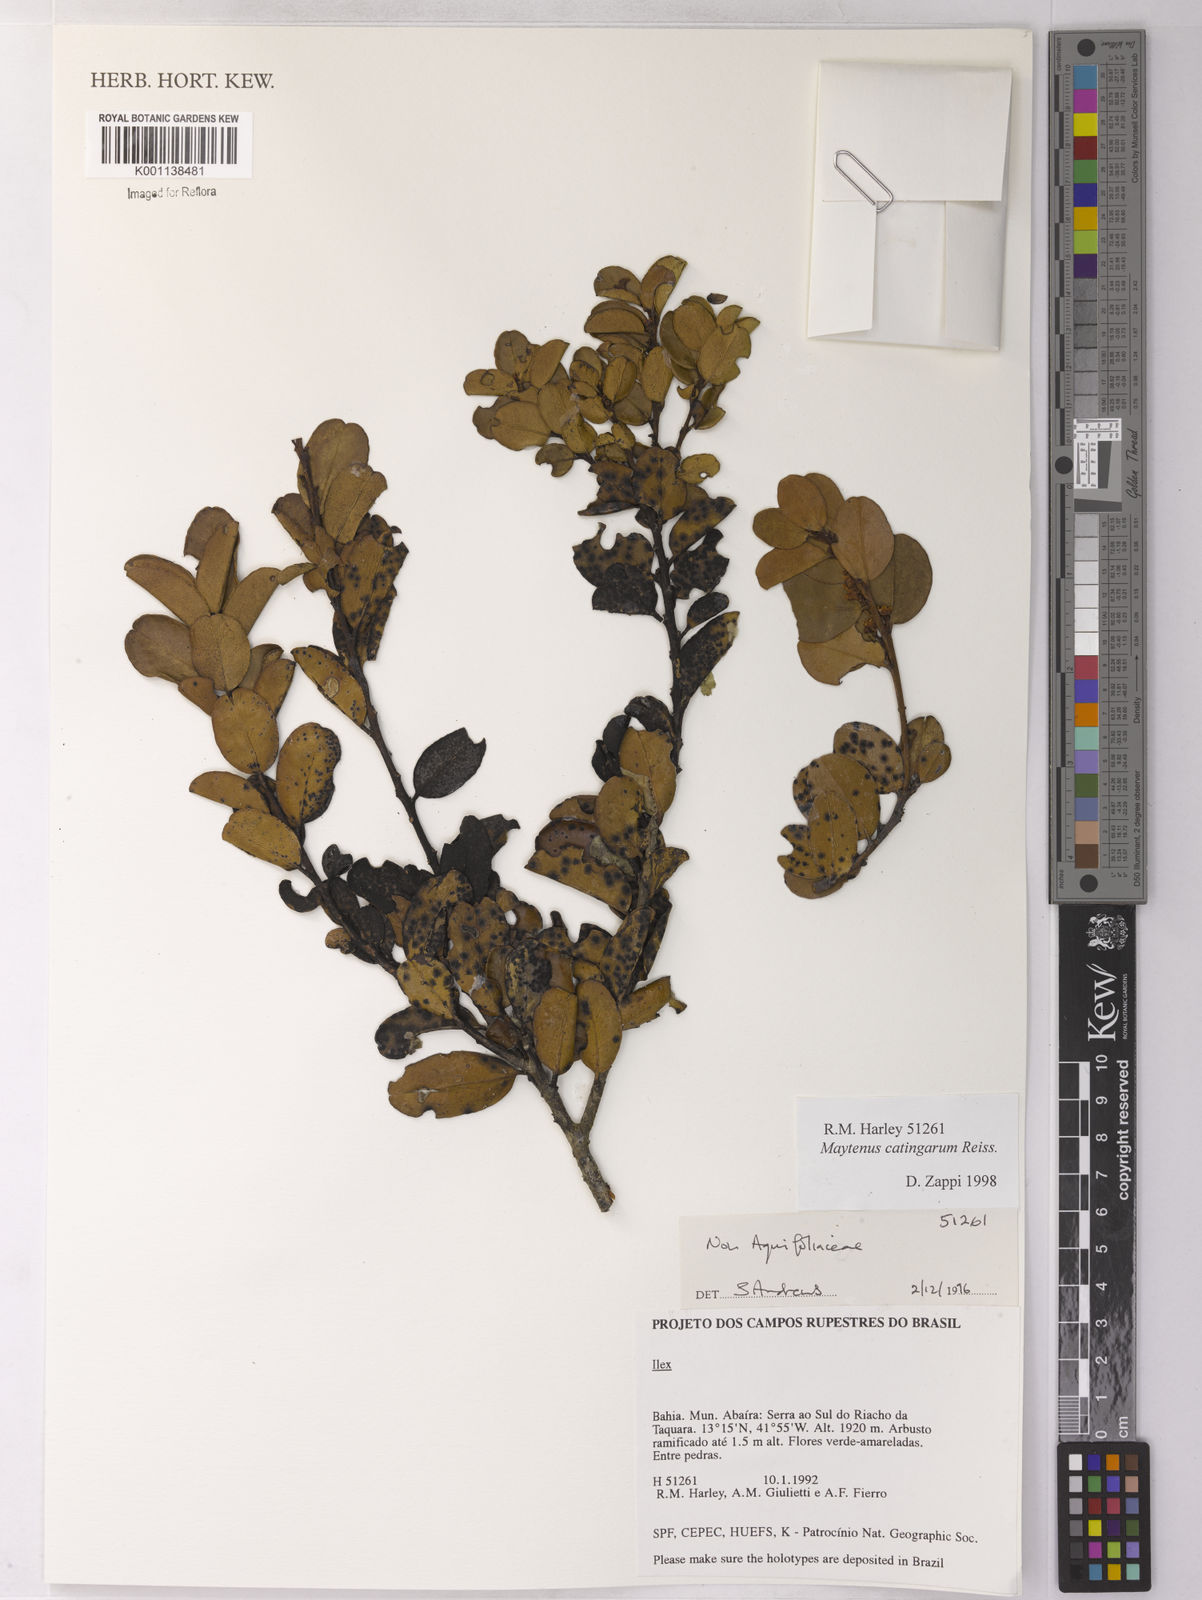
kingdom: Plantae
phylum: Tracheophyta
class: Magnoliopsida
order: Celastrales
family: Celastraceae
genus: Monteverdia
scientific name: Monteverdia catingarum
